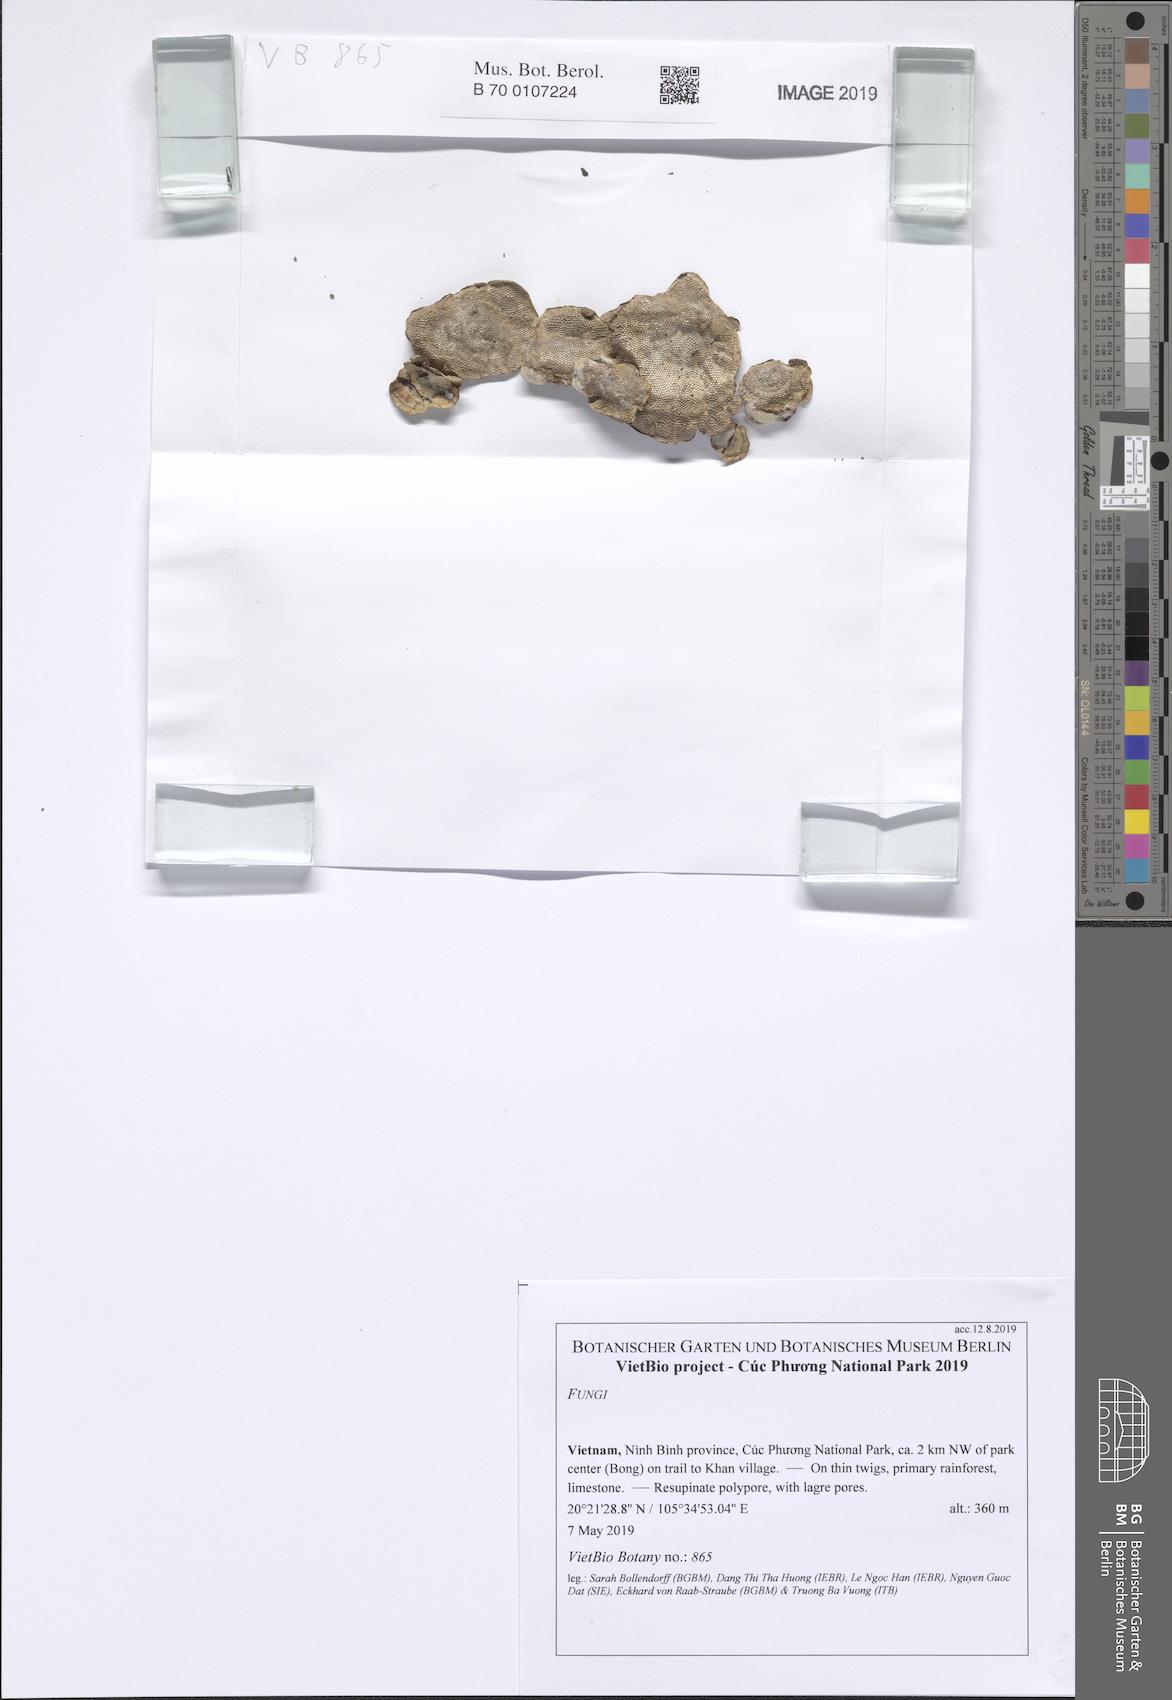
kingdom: Fungi
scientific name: Fungi
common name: Fungi
